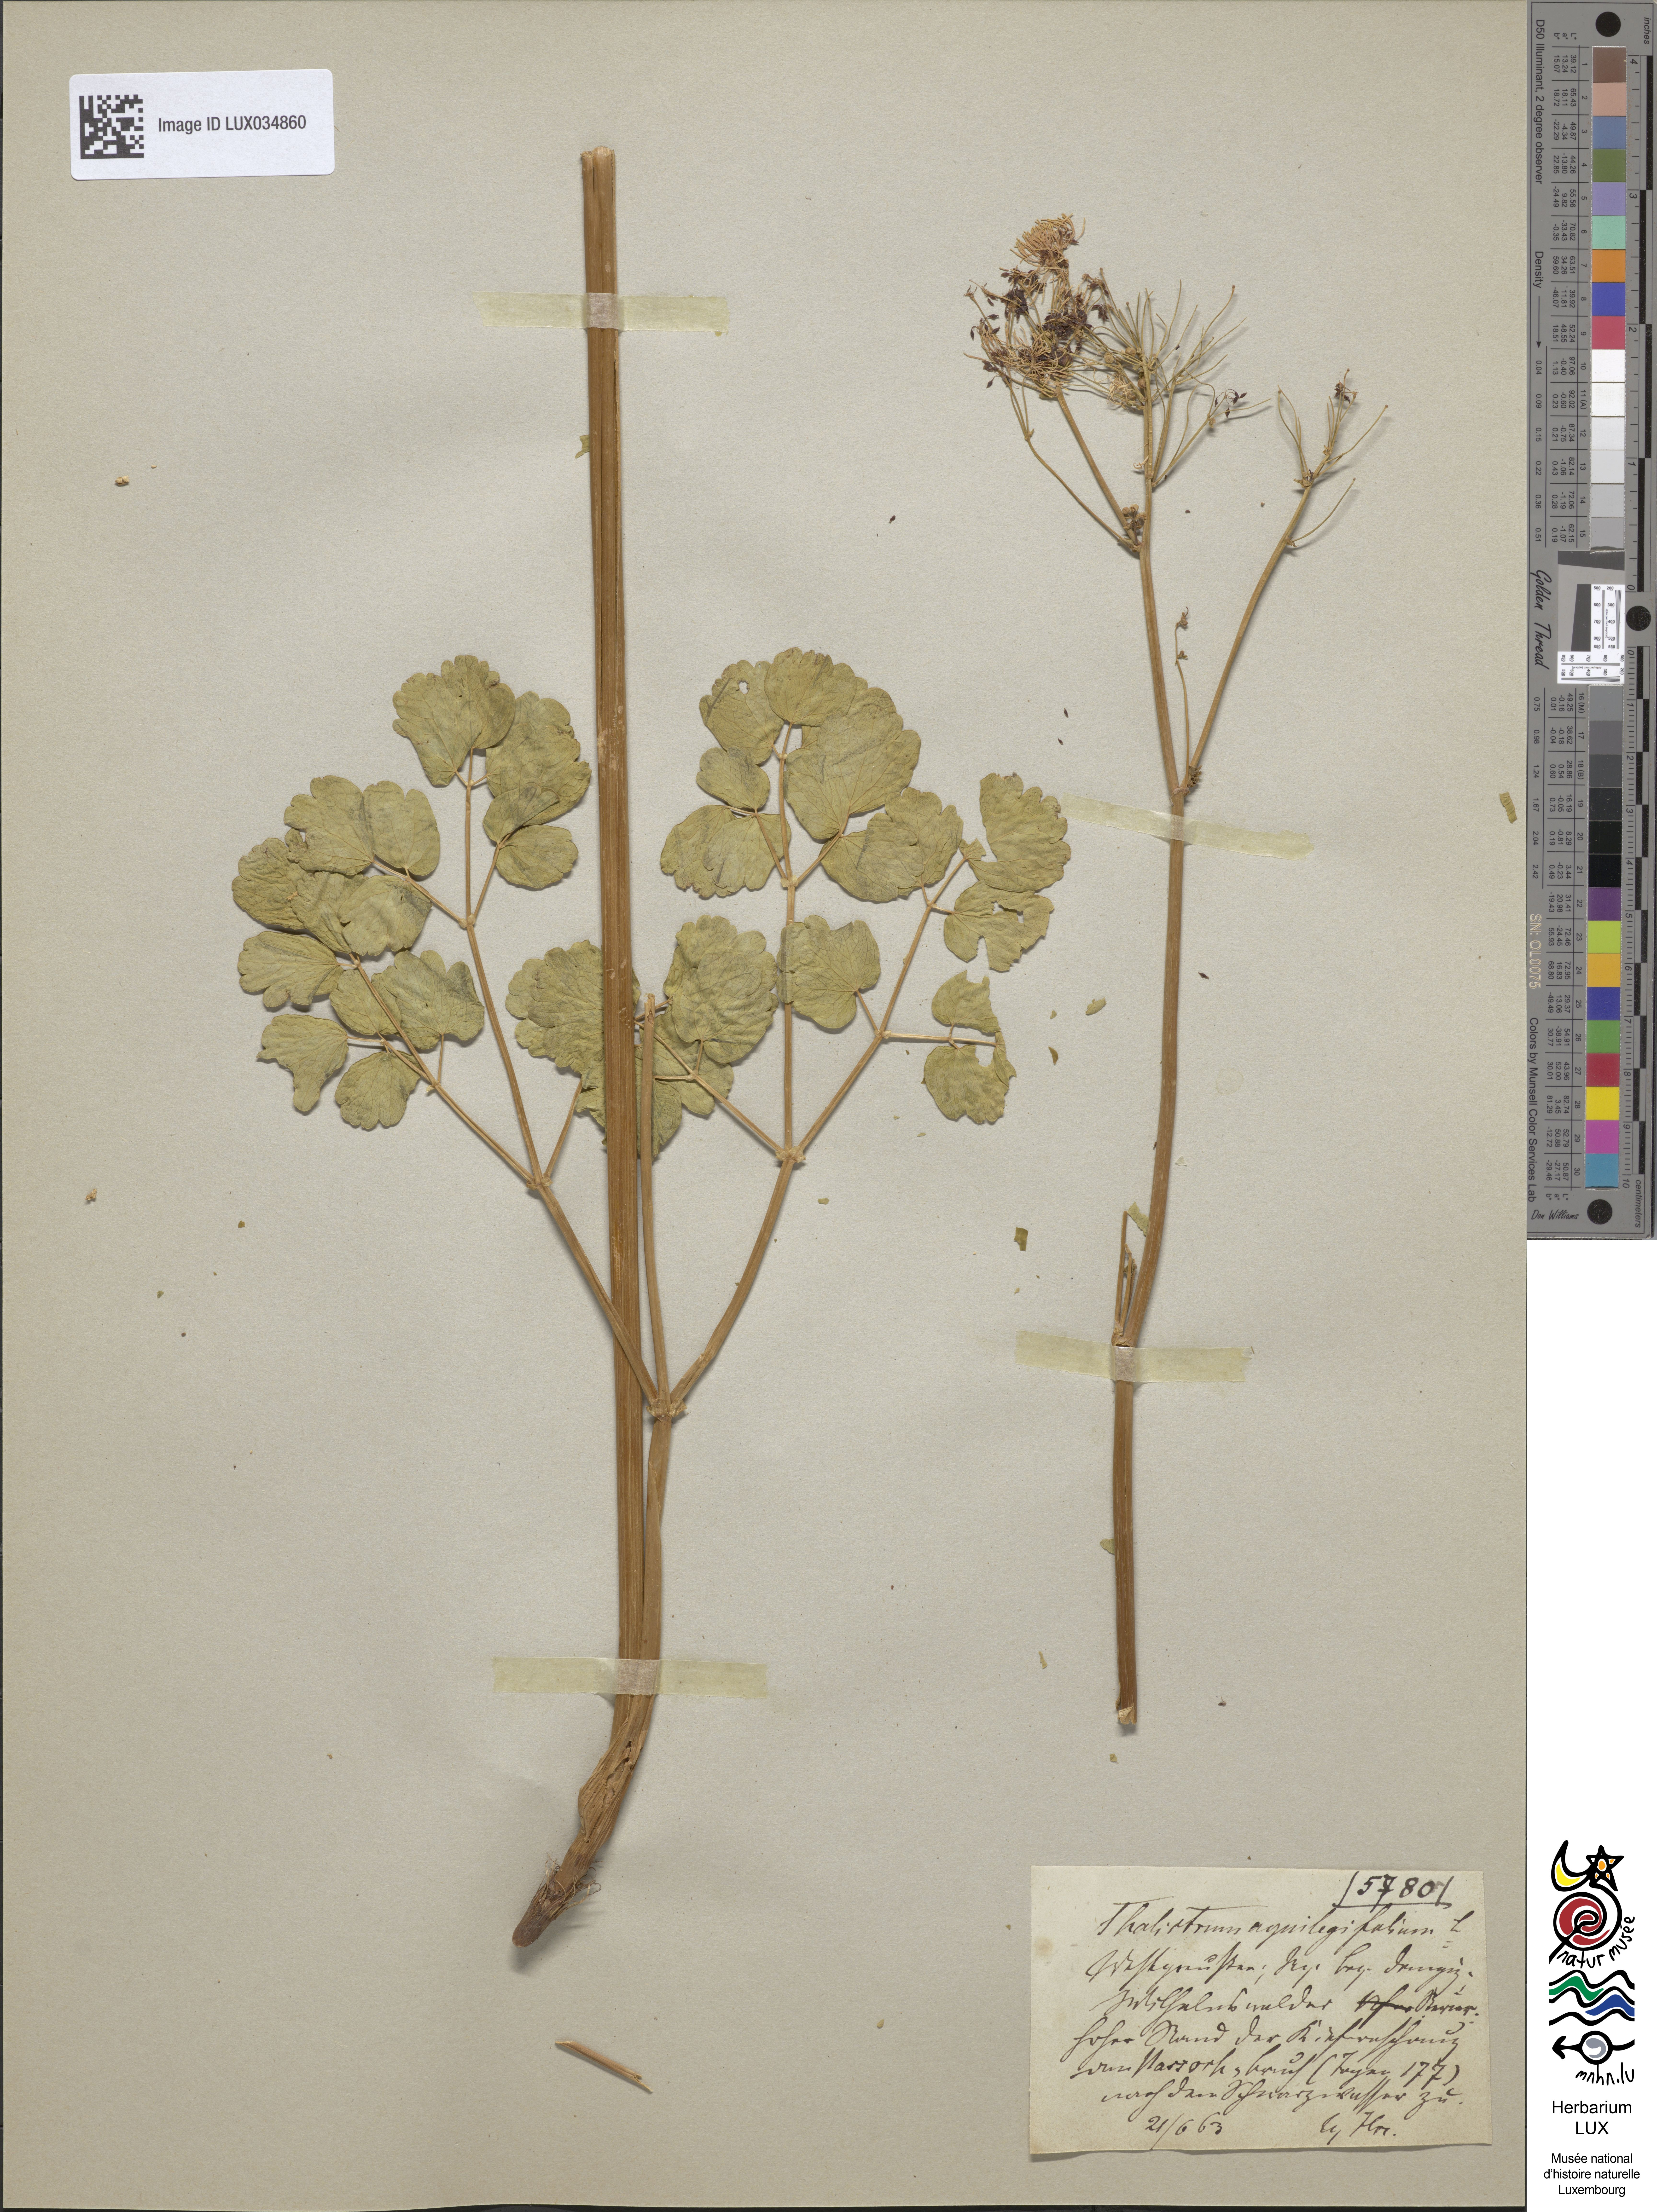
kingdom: Plantae
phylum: Tracheophyta
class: Magnoliopsida
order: Ranunculales
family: Ranunculaceae
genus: Thalictrum
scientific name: Thalictrum aquilegiifolium
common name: French meadow-rue
